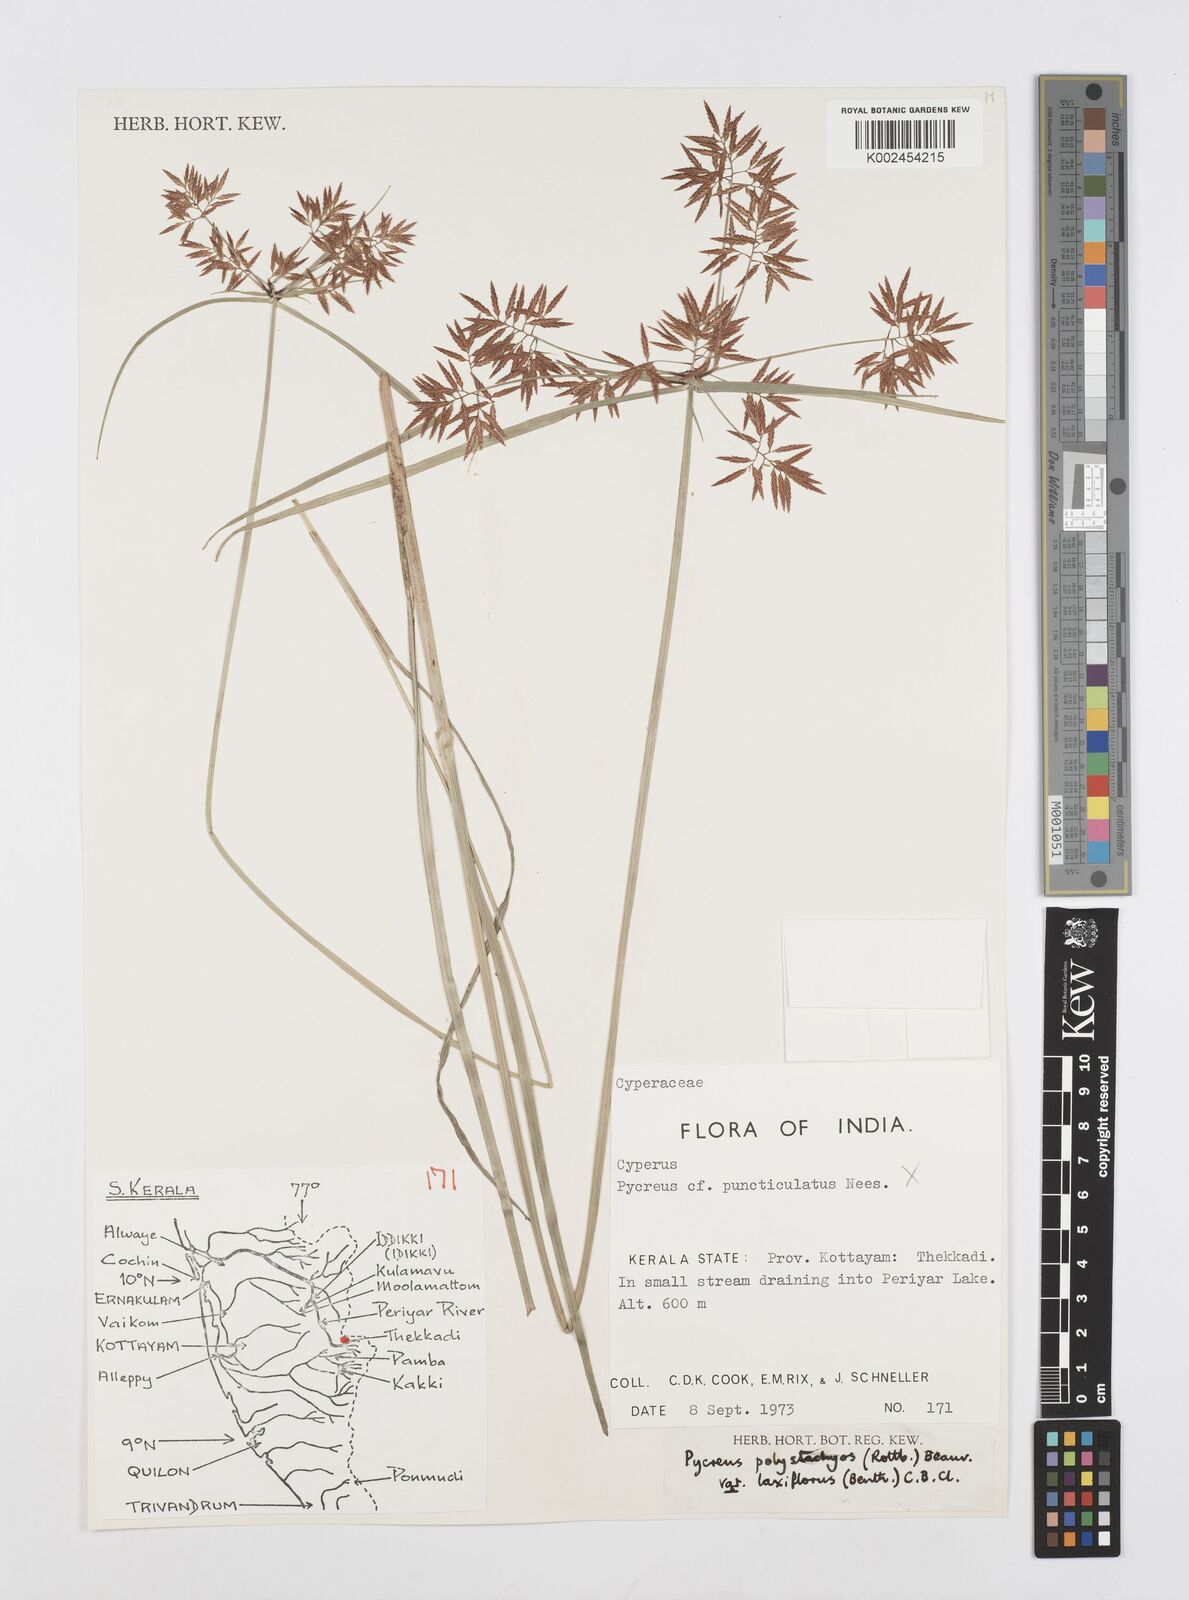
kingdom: Plantae
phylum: Tracheophyta
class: Liliopsida
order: Poales
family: Cyperaceae
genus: Cyperus
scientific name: Cyperus polystachyos
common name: Bunchy flat sedge
